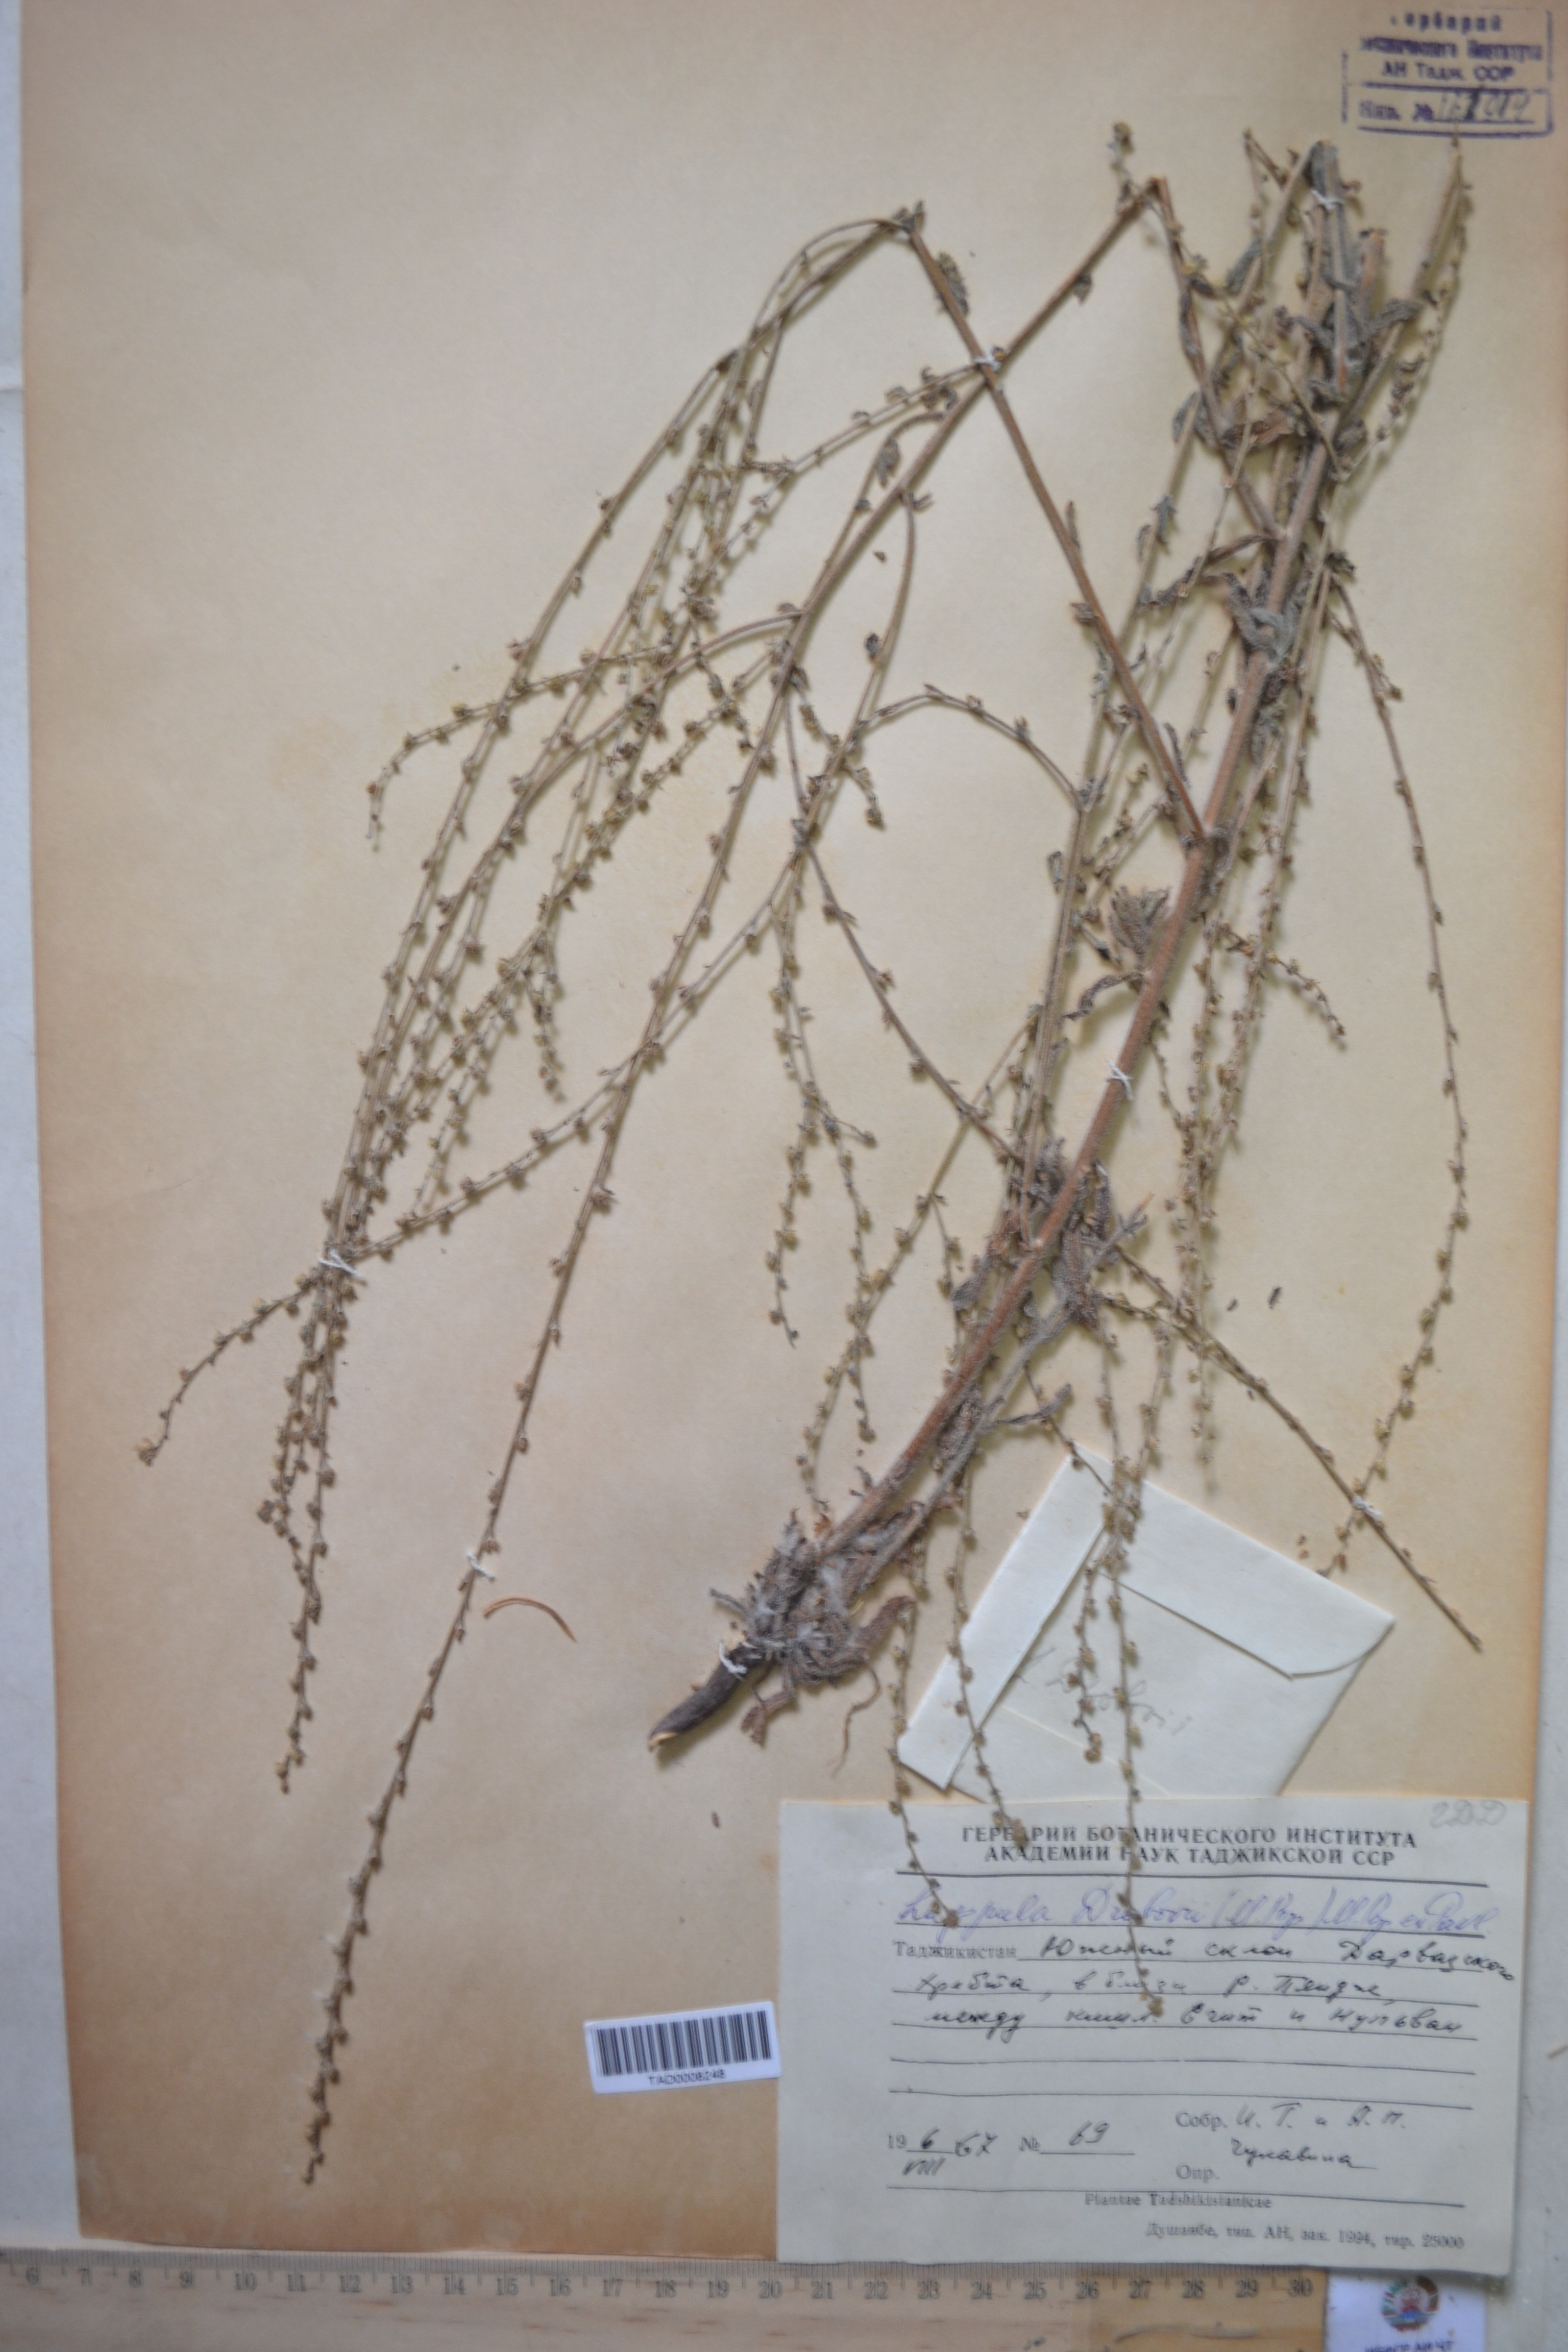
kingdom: Plantae
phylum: Tracheophyta
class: Magnoliopsida
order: Boraginales
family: Boraginaceae
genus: Rochelia
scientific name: Rochelia drobovii
